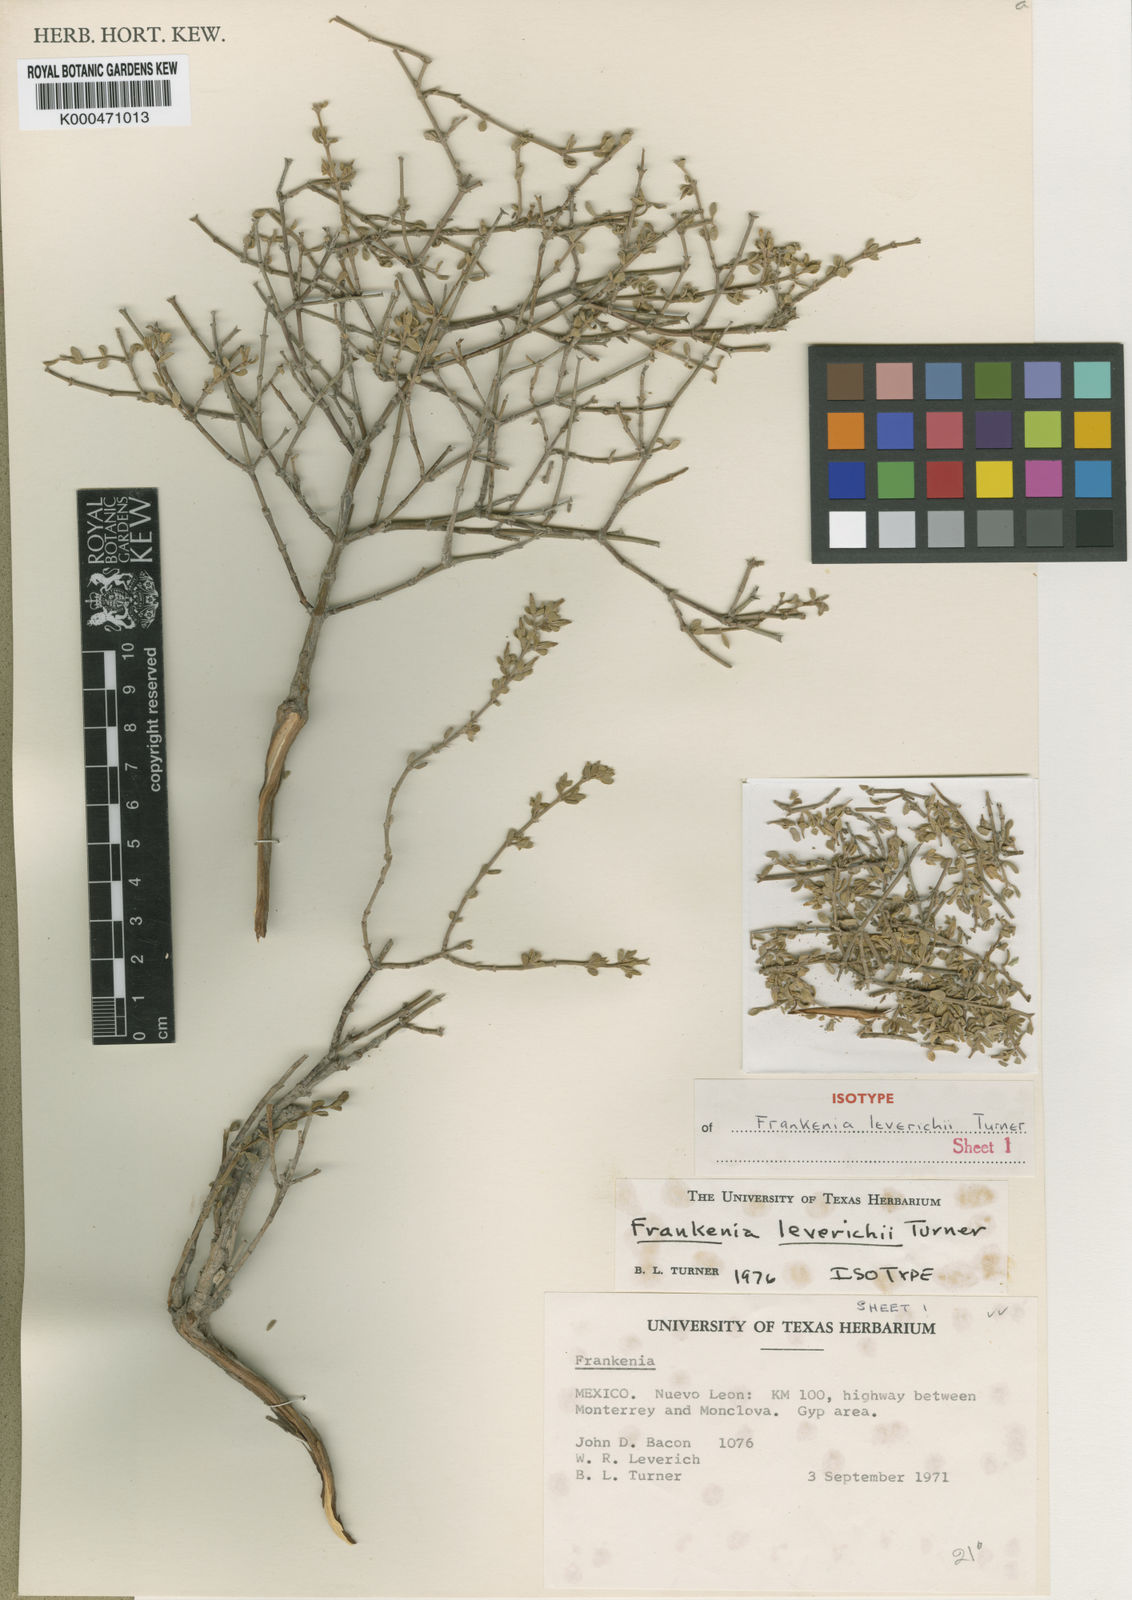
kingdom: Plantae
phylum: Tracheophyta
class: Magnoliopsida
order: Caryophyllales
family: Frankeniaceae
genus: Frankenia
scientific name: Frankenia johnstonii
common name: Johnston's frankenia
